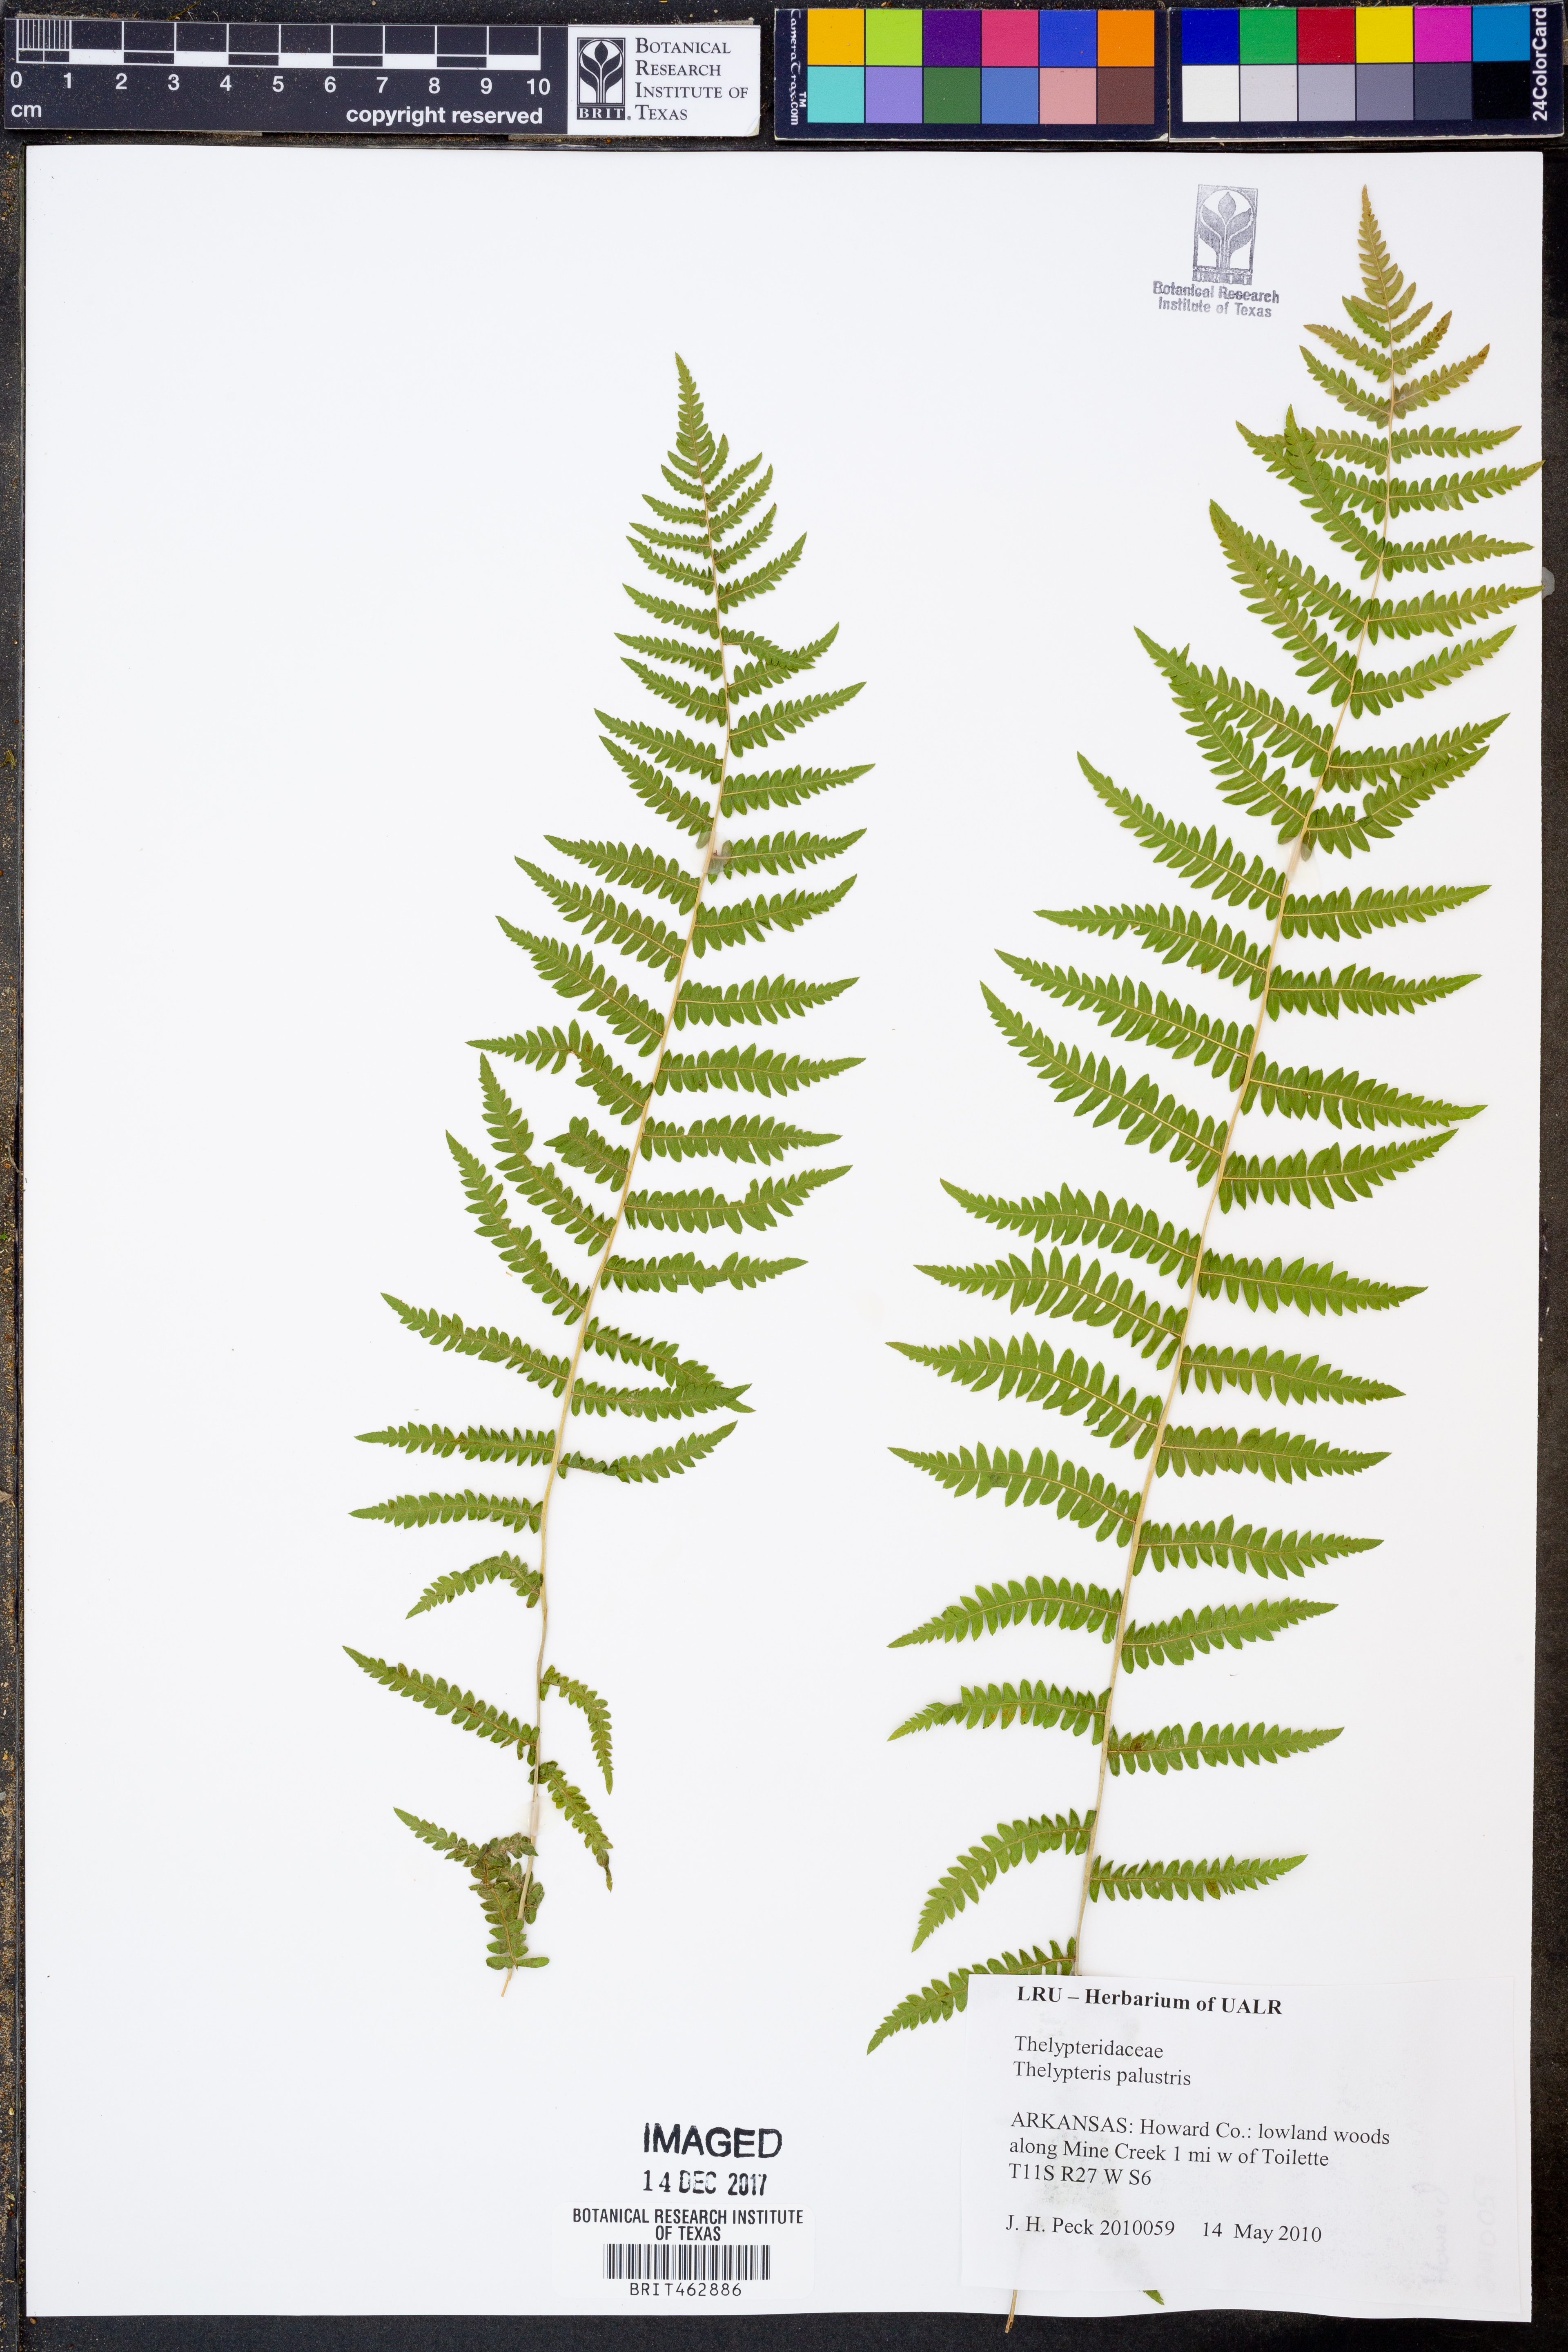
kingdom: Plantae
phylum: Tracheophyta
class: Polypodiopsida
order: Polypodiales
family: Thelypteridaceae
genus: Thelypteris
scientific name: Thelypteris palustris
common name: Marsh fern
